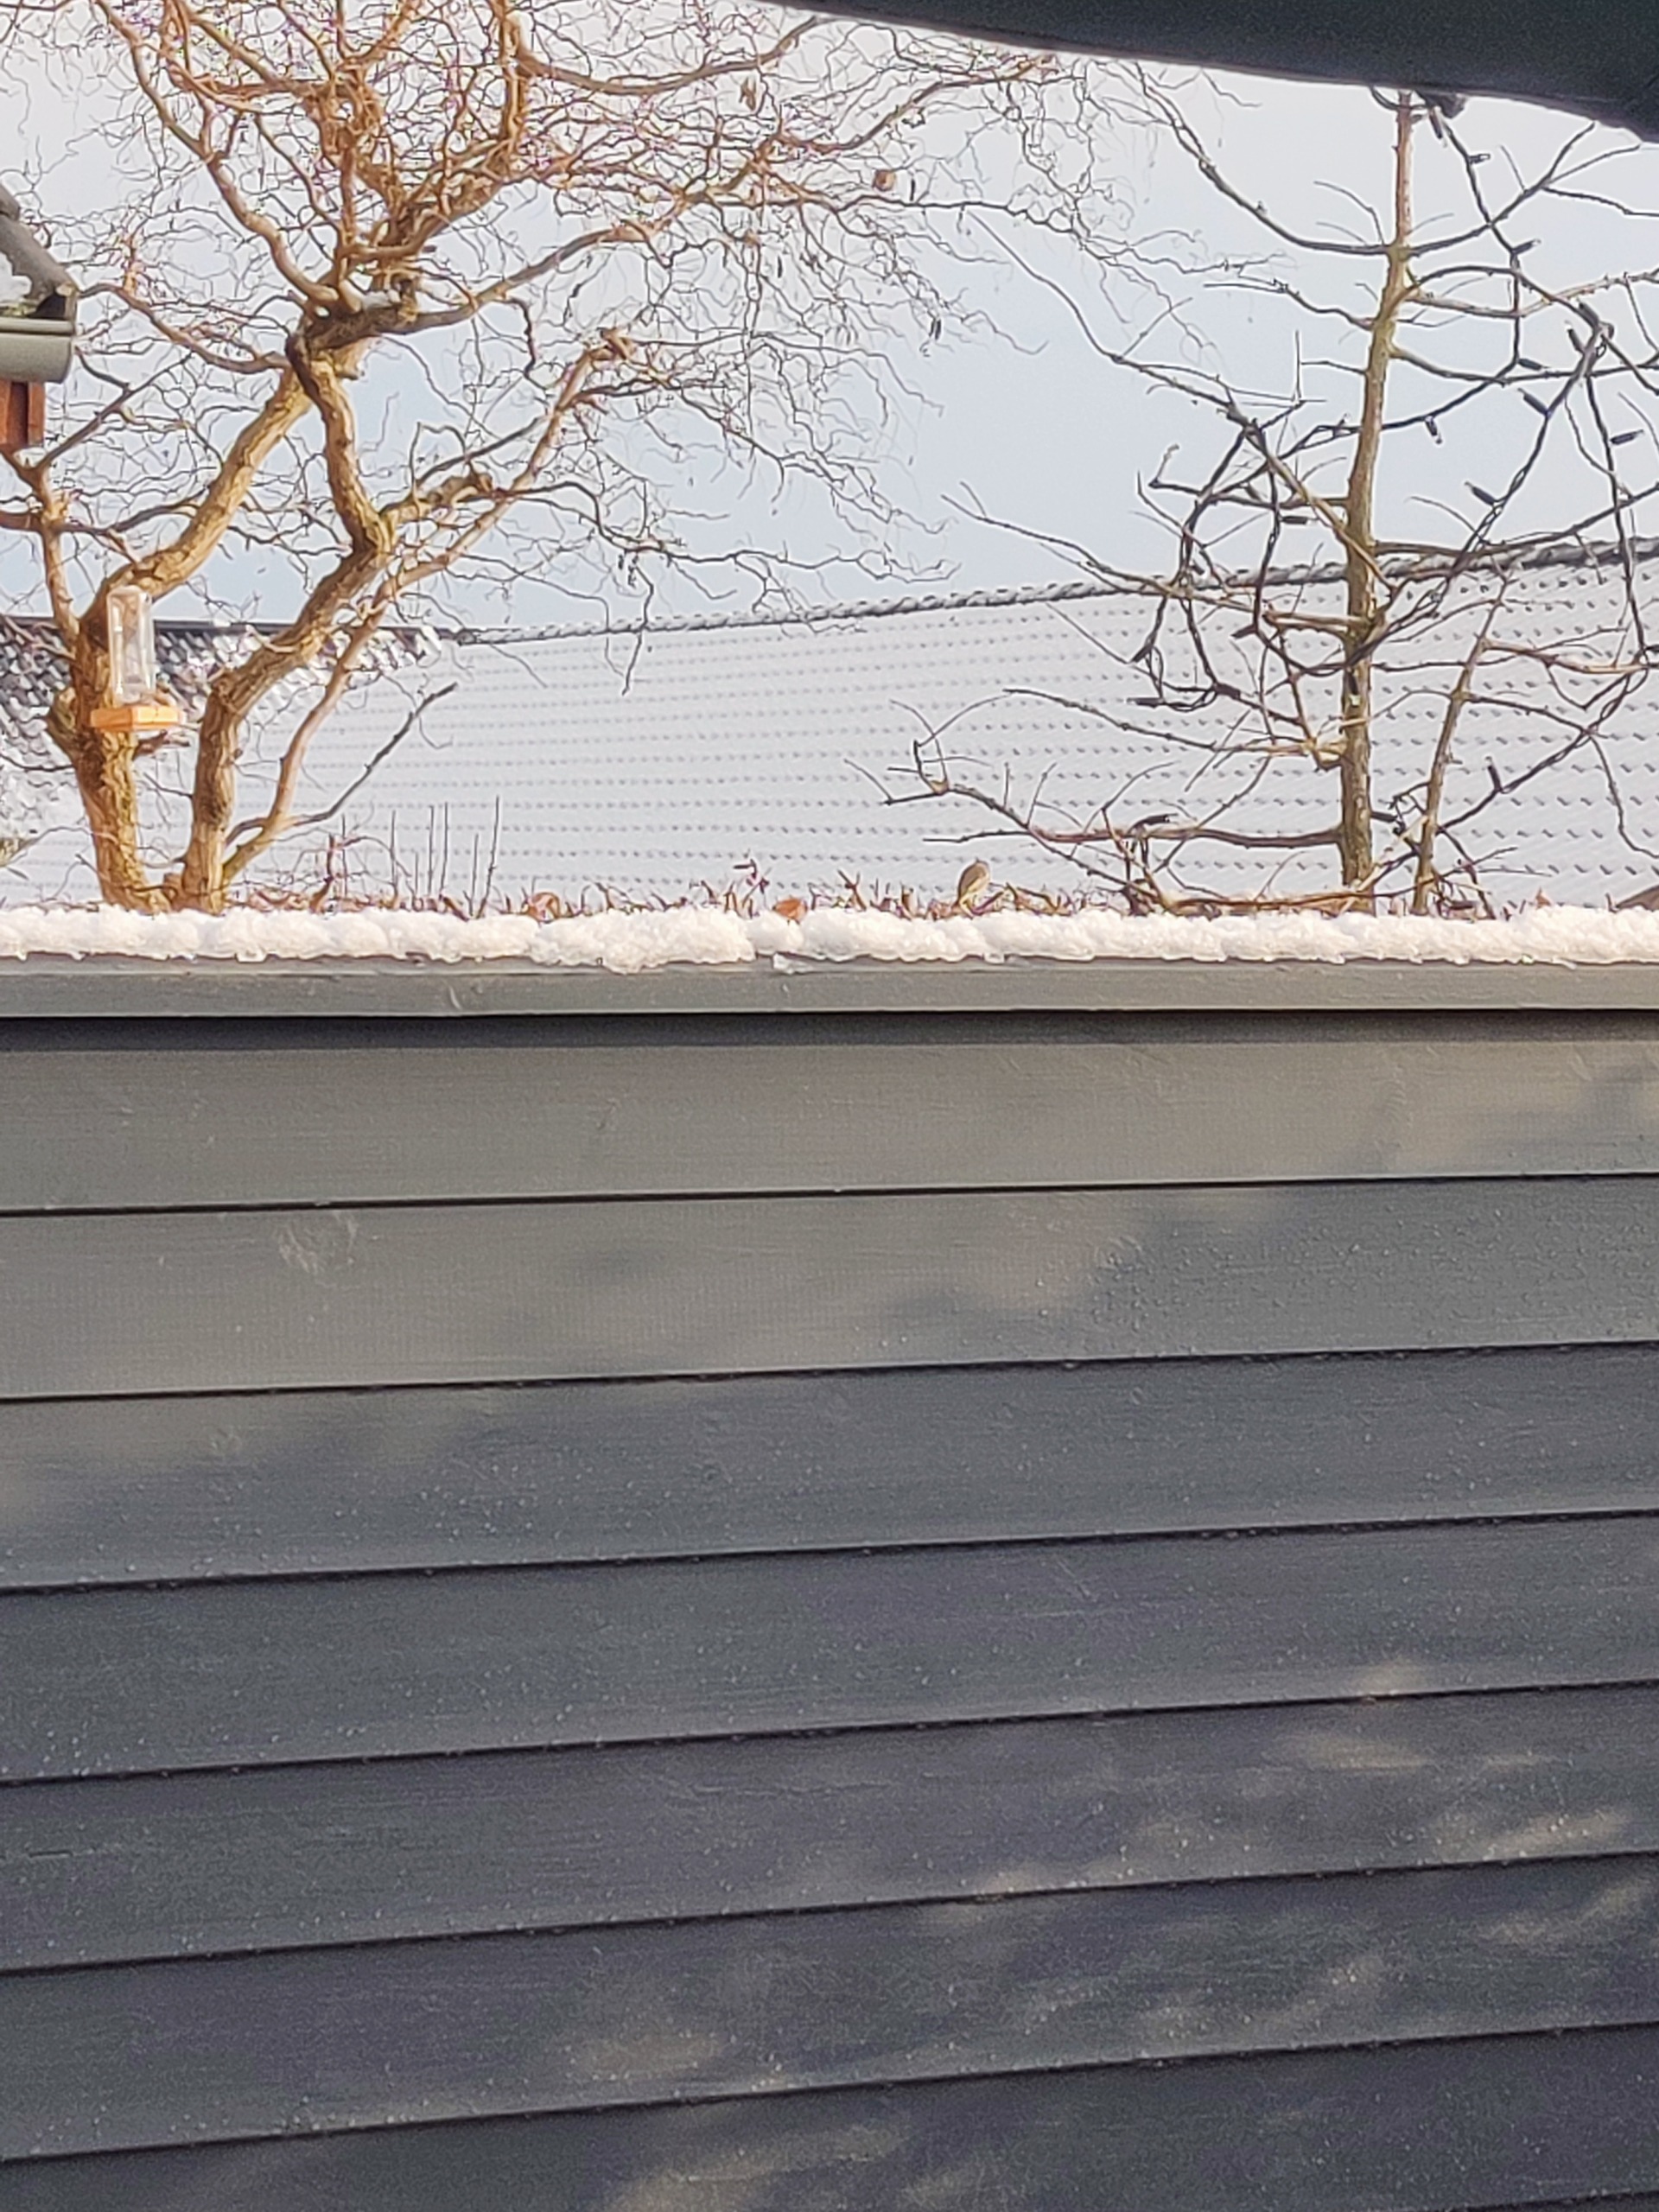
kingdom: Plantae
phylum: Tracheophyta
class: Liliopsida
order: Poales
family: Poaceae
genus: Chloris
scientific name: Chloris chloris
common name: Grønirisk
